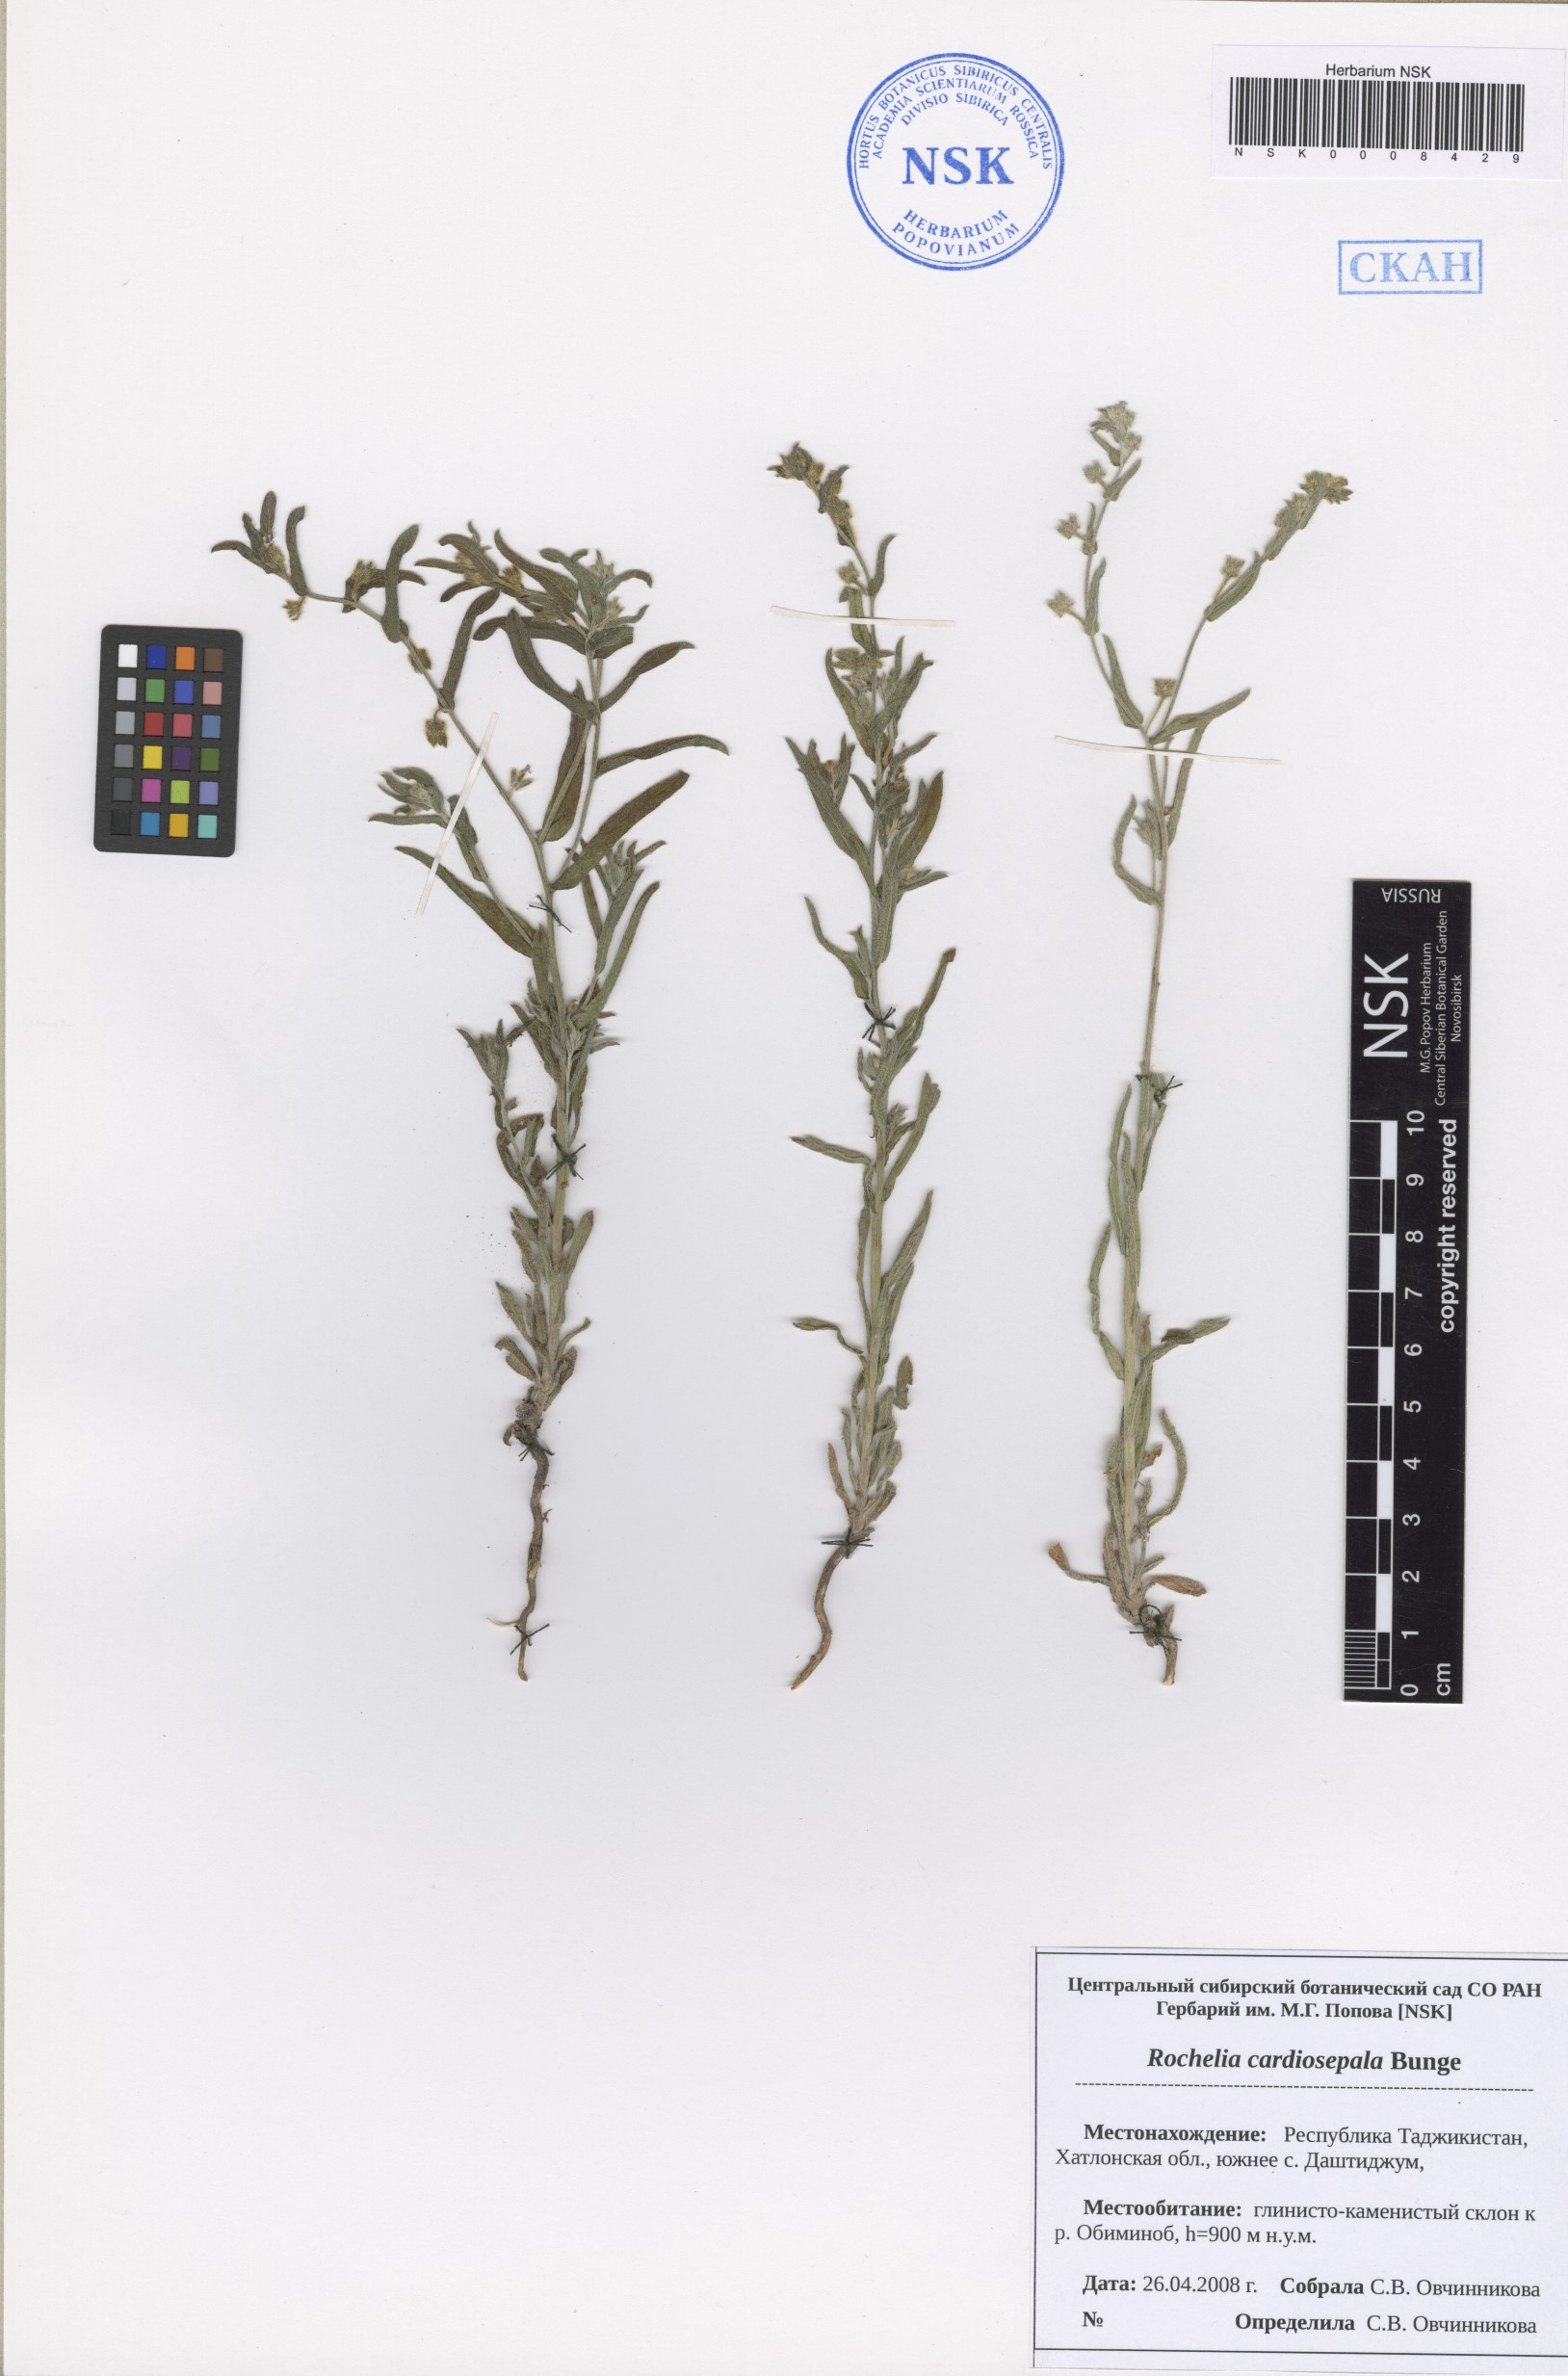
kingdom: Plantae
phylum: Tracheophyta
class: Magnoliopsida
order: Boraginales
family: Boraginaceae
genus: Rochelia
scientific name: Rochelia cardiosepala
